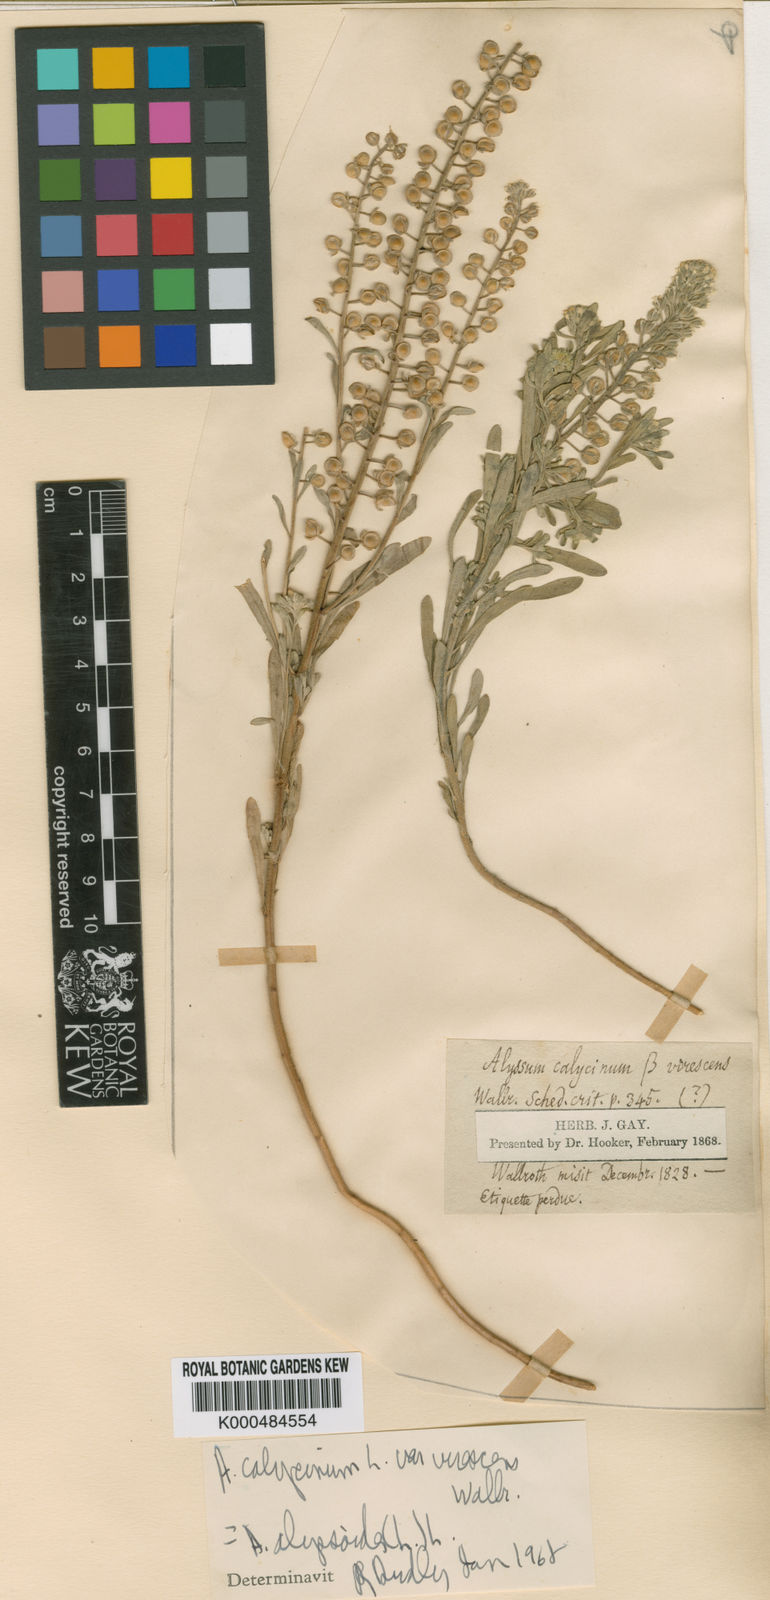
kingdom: Plantae
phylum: Tracheophyta
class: Magnoliopsida
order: Brassicales
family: Brassicaceae
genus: Alyssum
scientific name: Alyssum alyssoides
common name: Small alison
